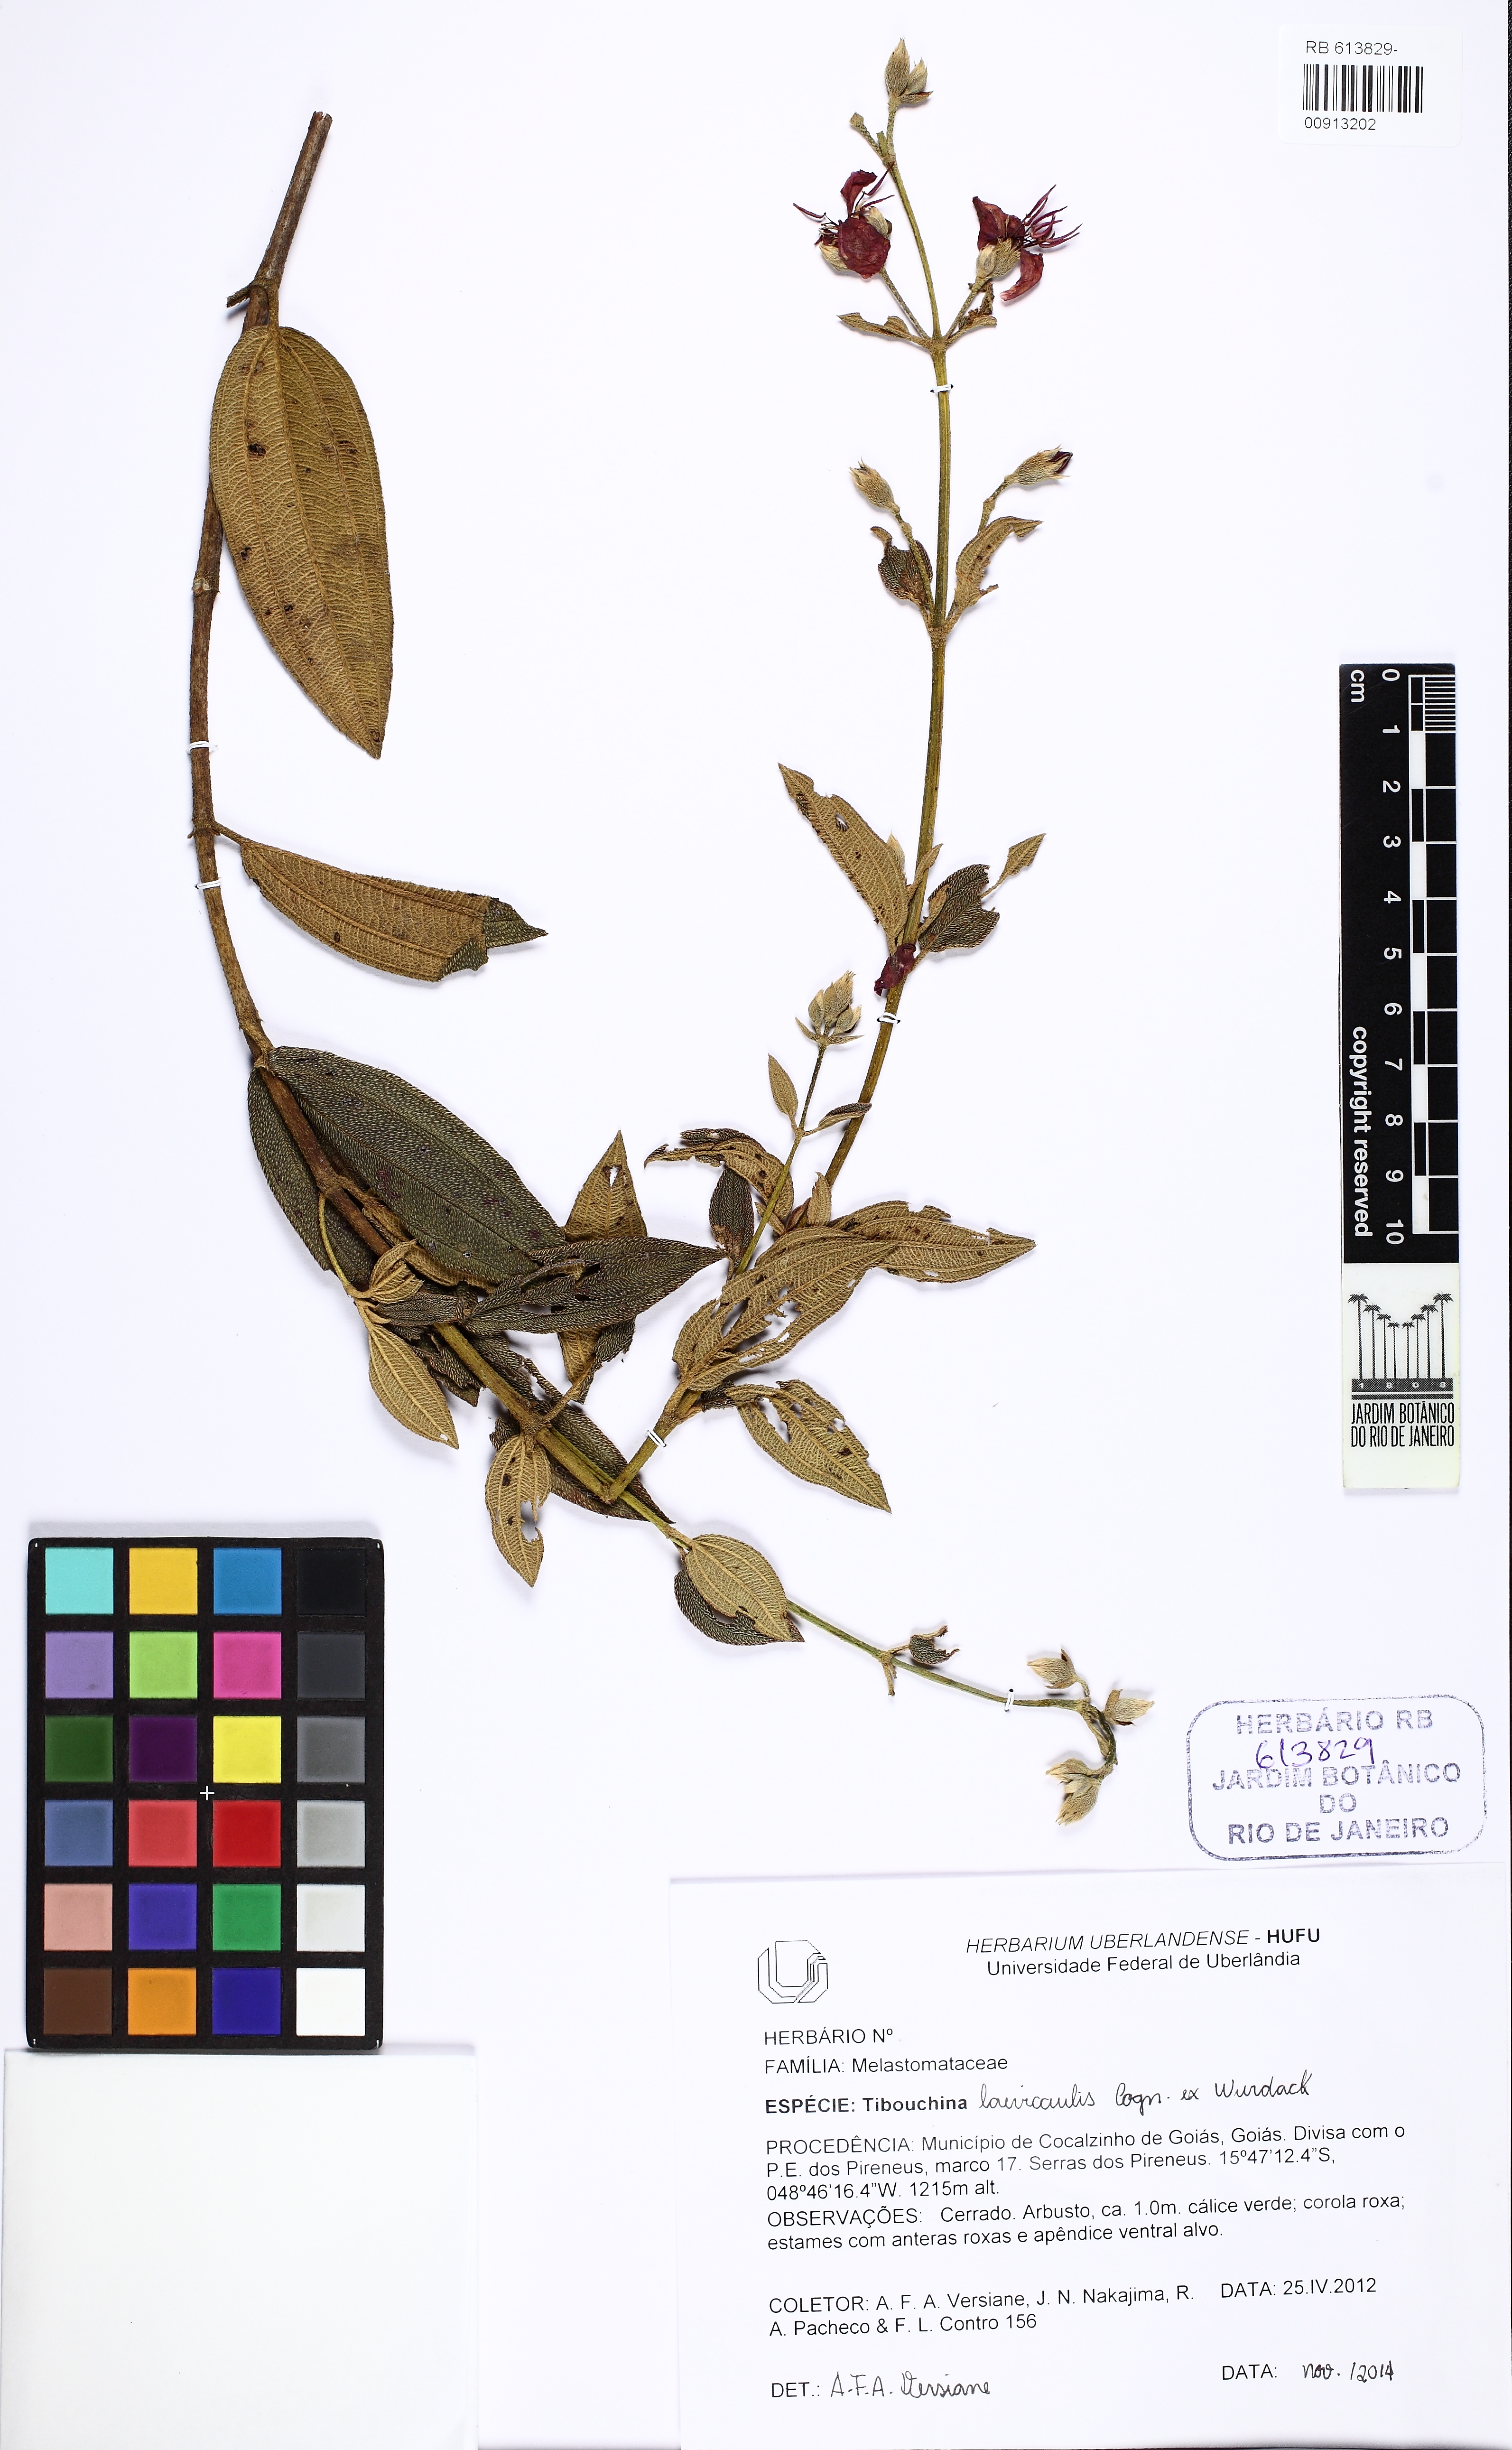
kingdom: Plantae
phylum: Tracheophyta
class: Magnoliopsida
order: Myrtales
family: Melastomataceae
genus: Pleroma
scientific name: Pleroma laevicaule
